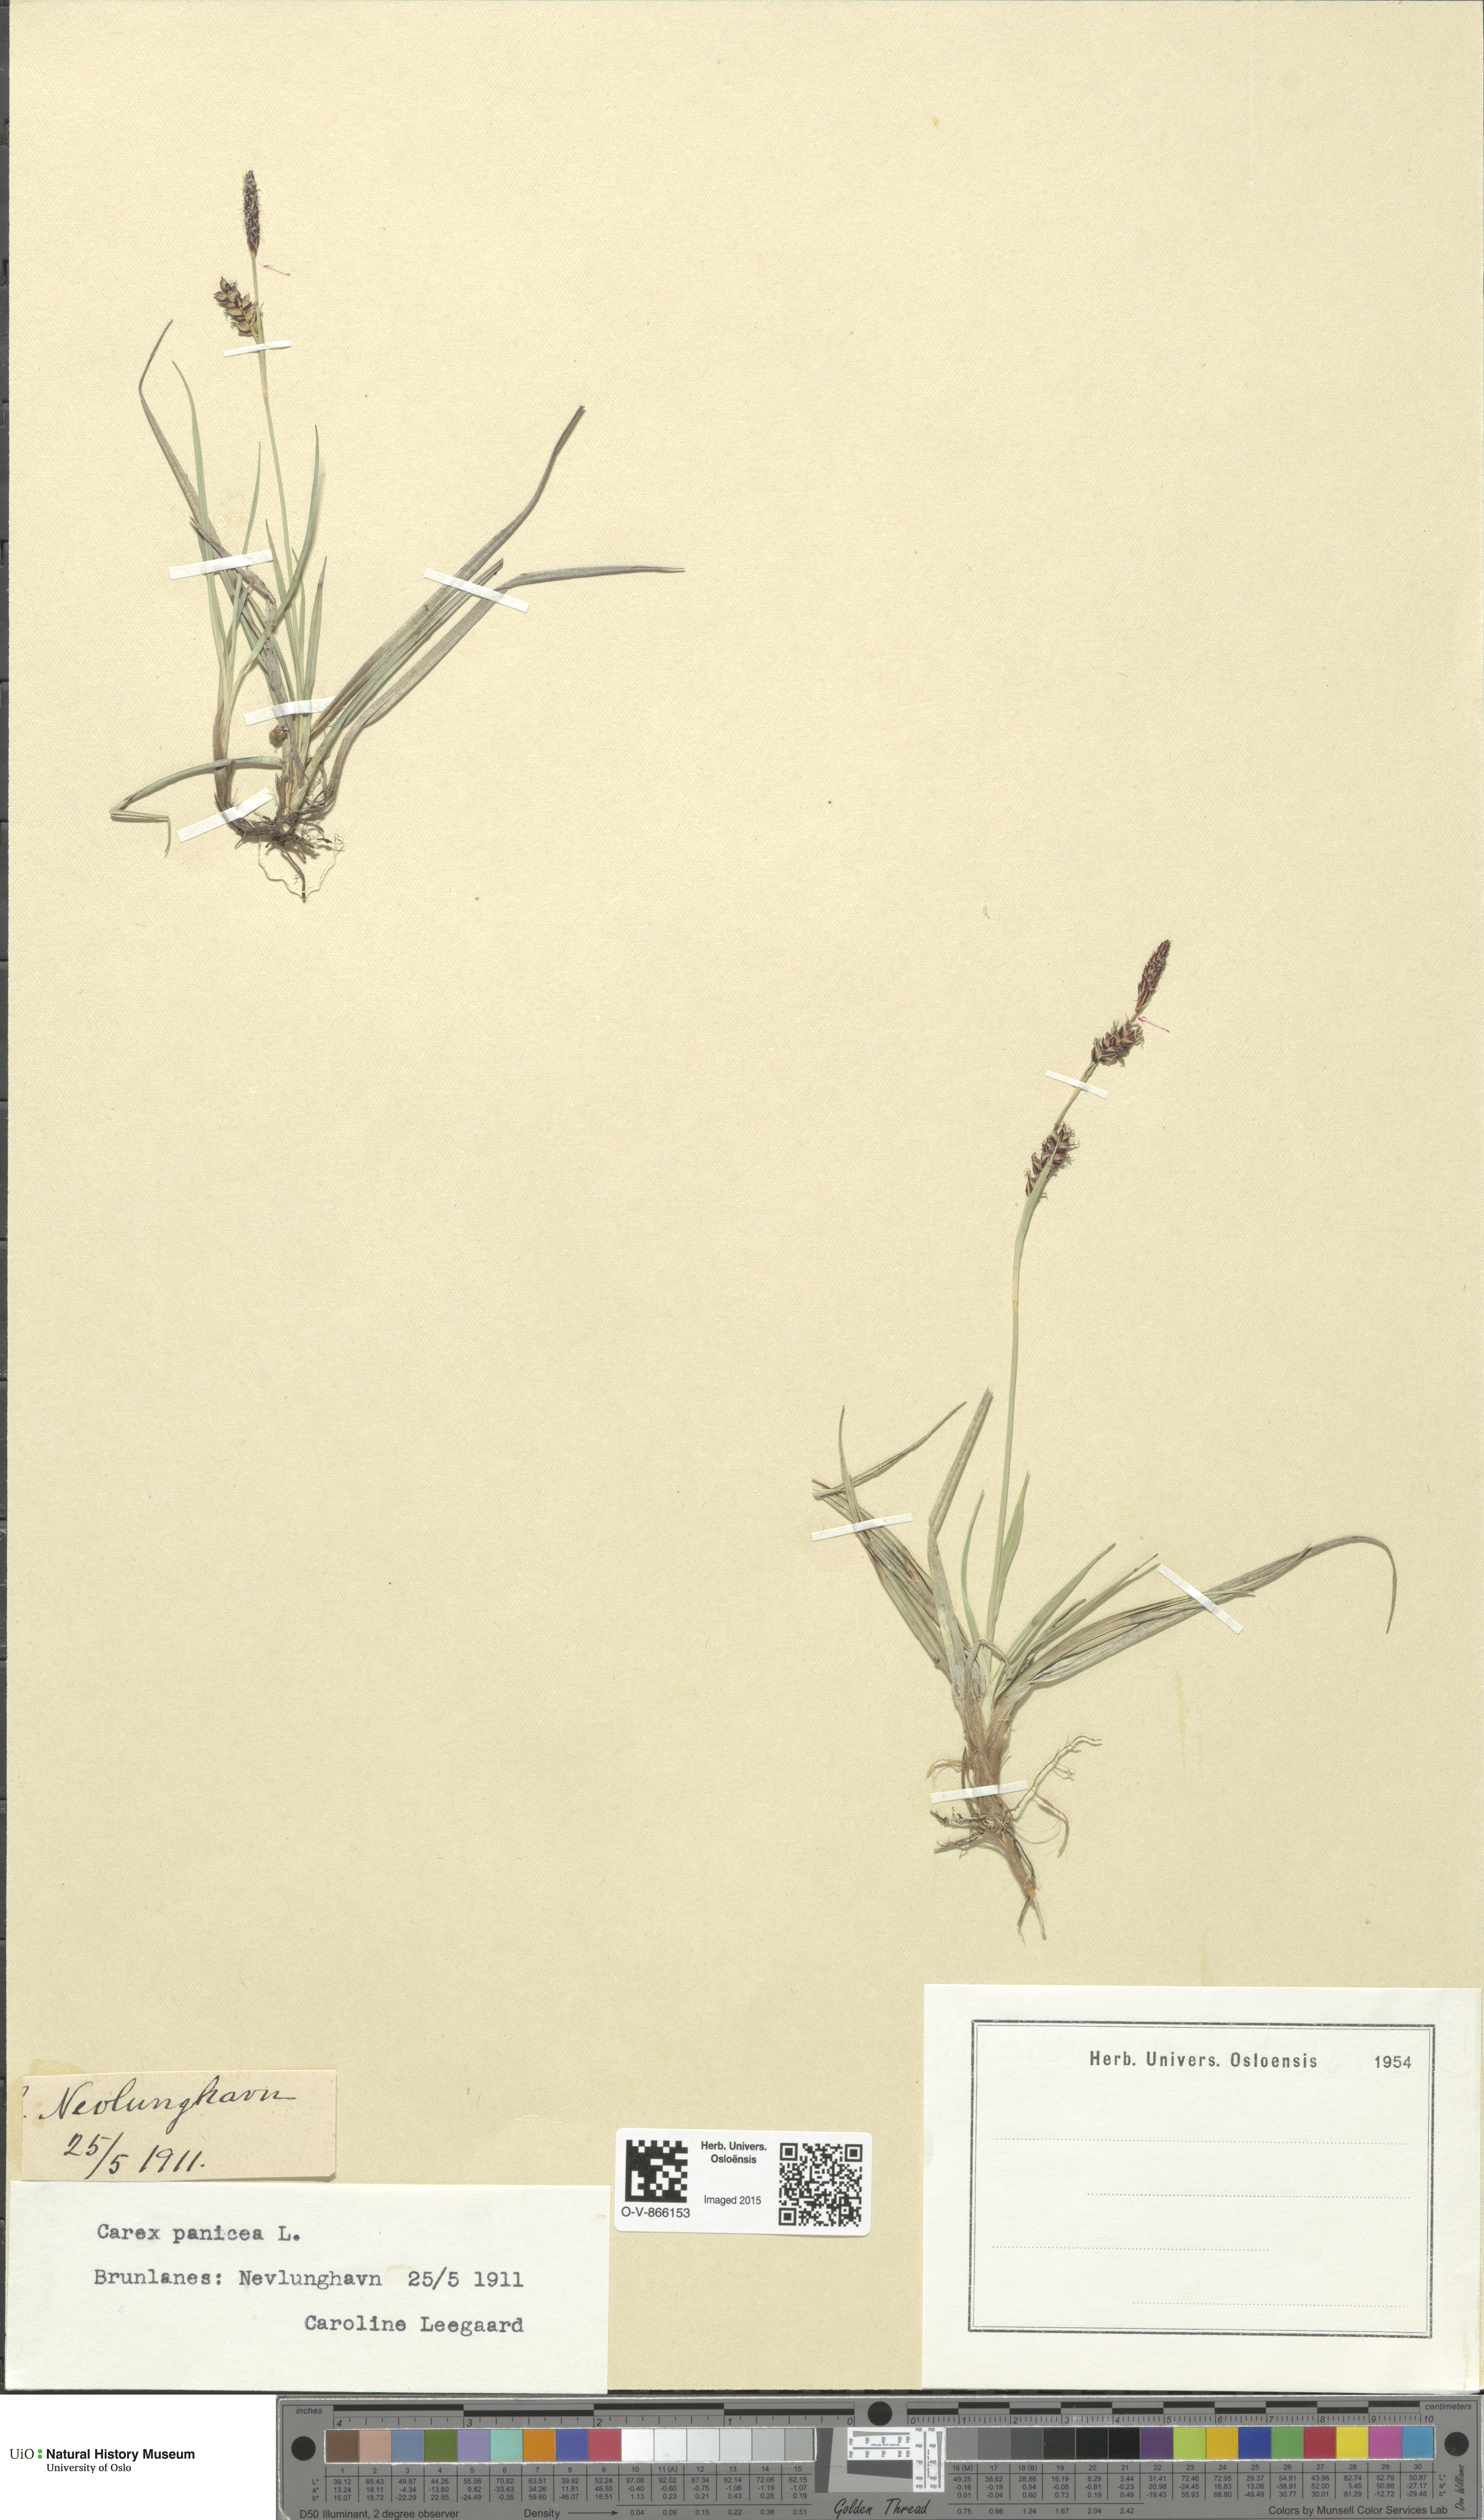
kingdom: Plantae
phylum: Tracheophyta
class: Liliopsida
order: Poales
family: Cyperaceae
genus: Carex
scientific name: Carex panicea
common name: Carnation sedge
